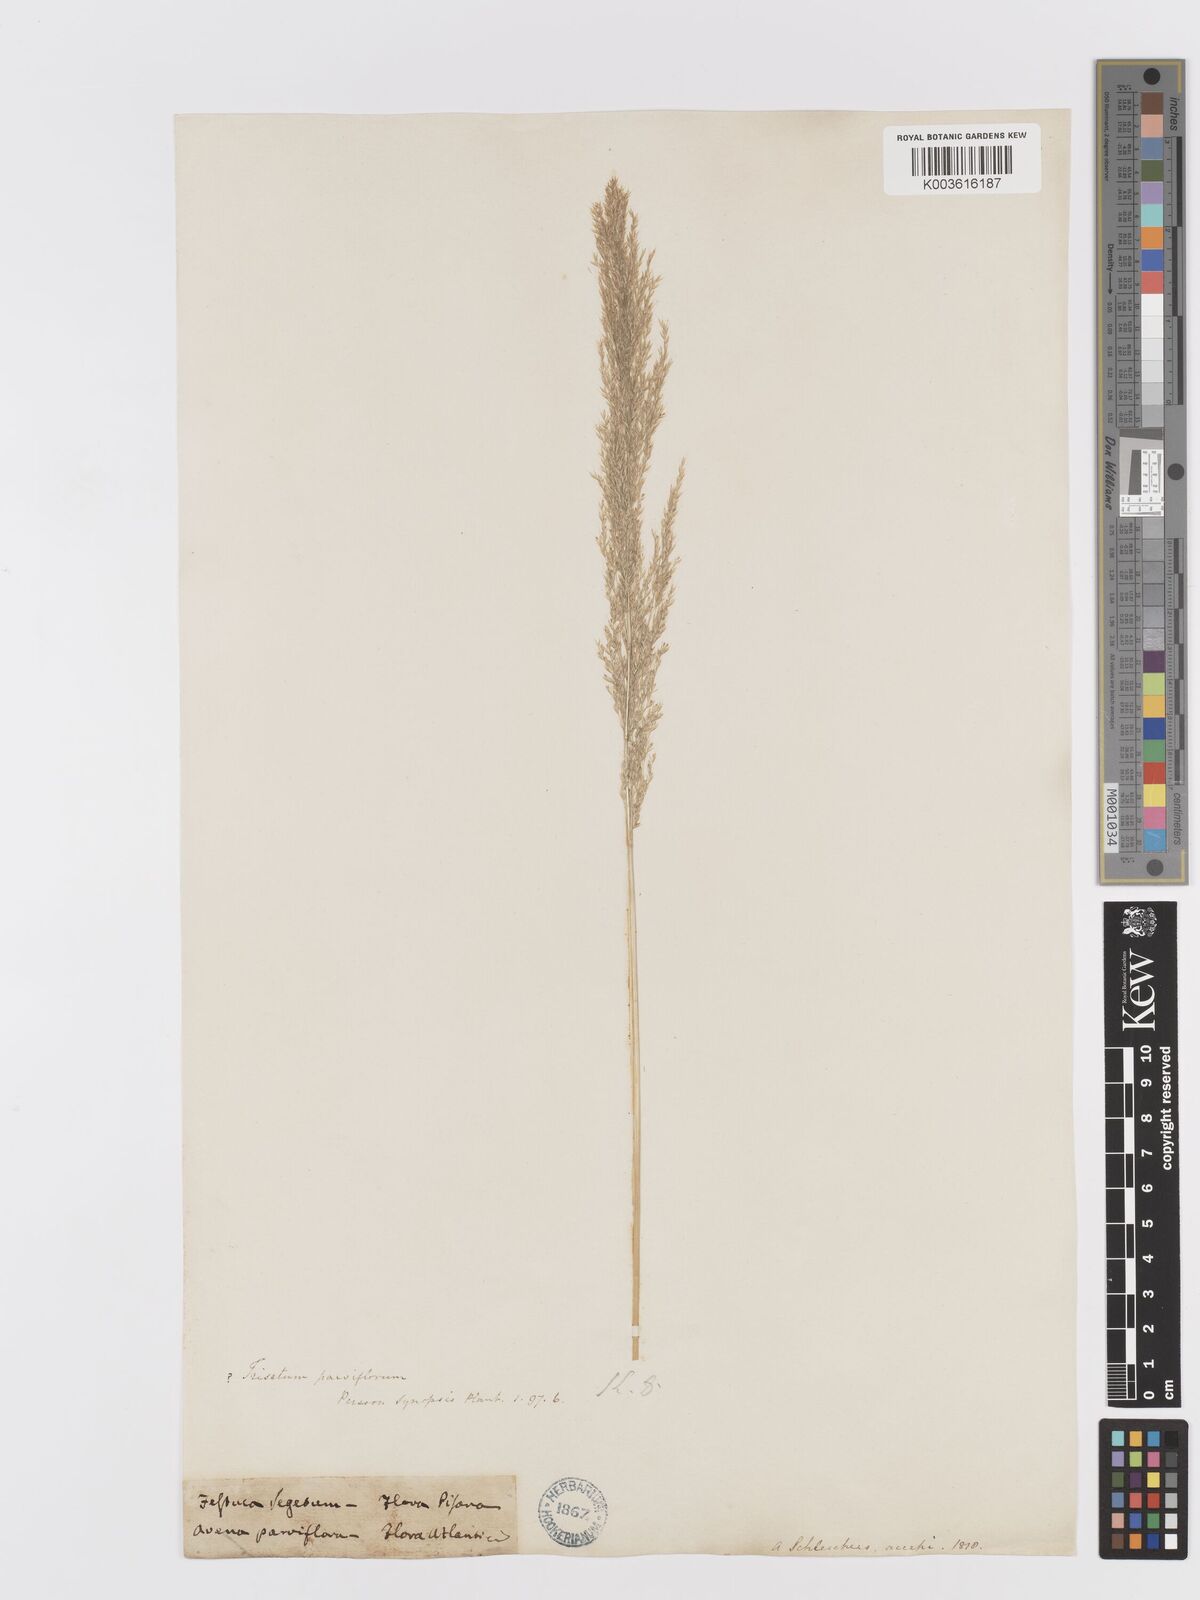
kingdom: Plantae
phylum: Tracheophyta
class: Liliopsida
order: Poales
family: Poaceae
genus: Trisetaria
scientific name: Trisetaria parviflora
